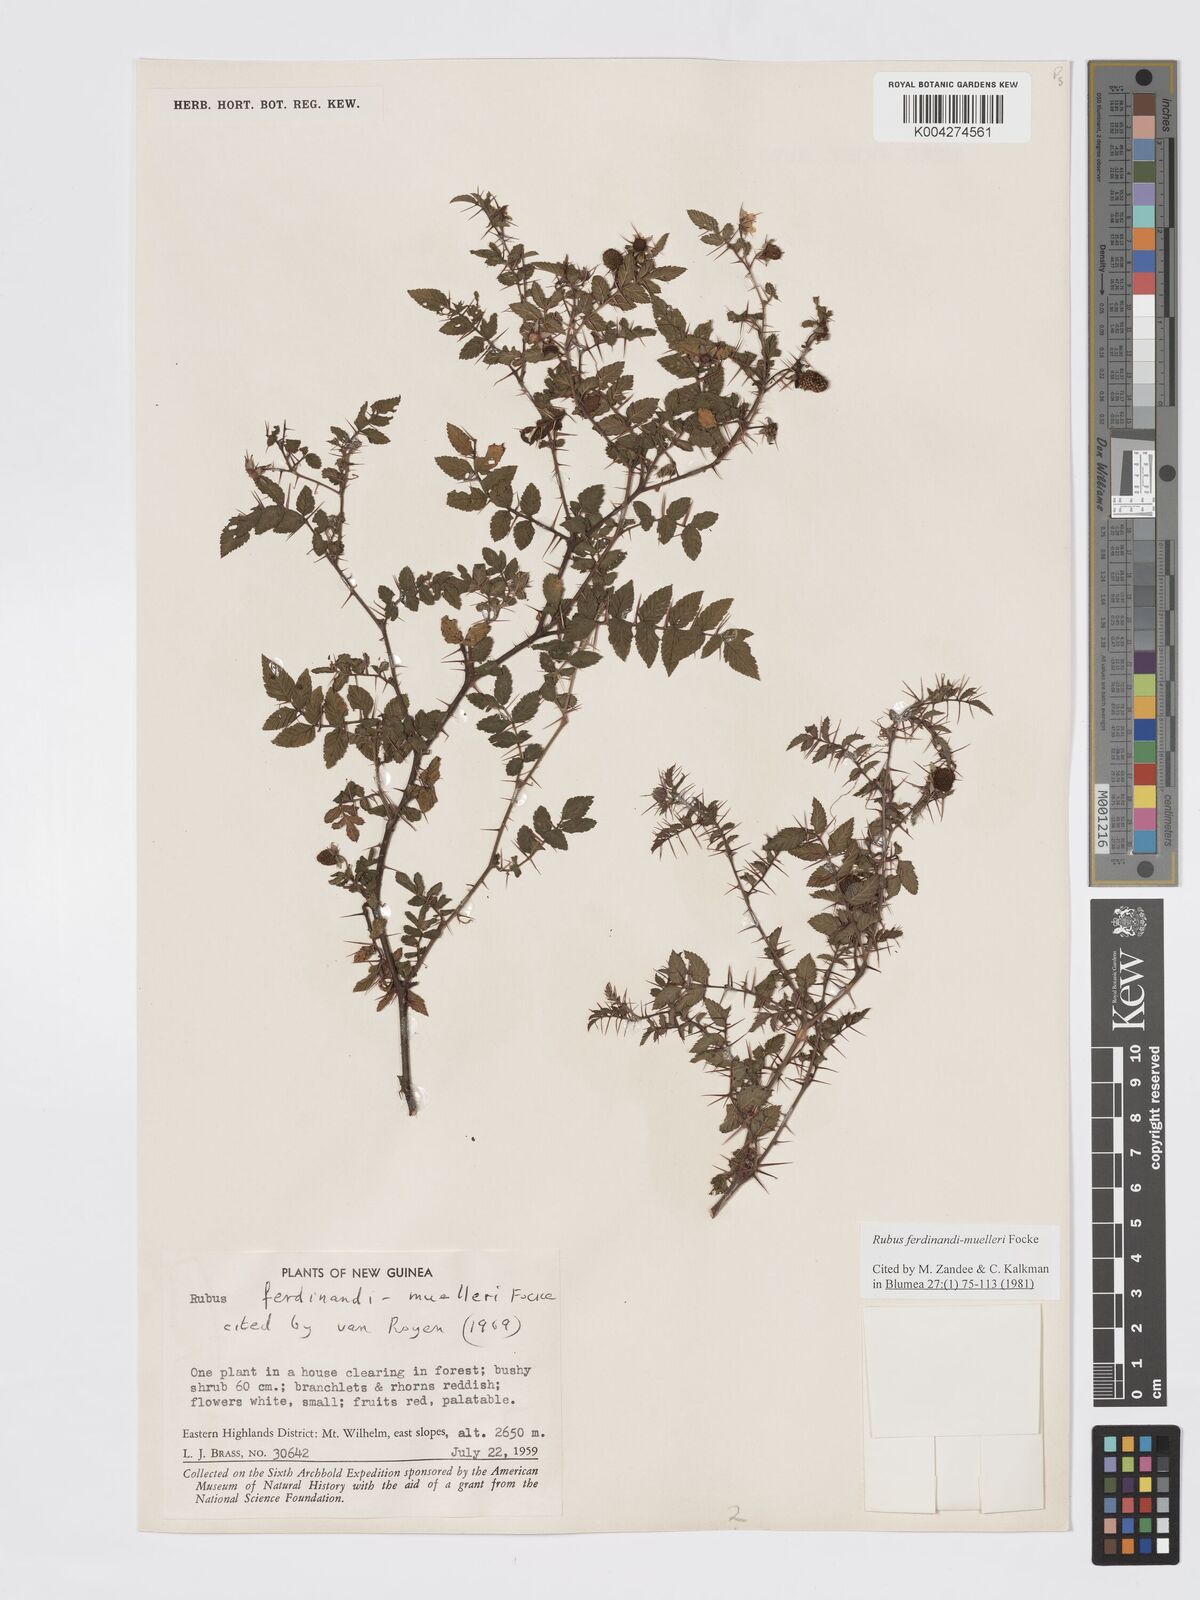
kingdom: Plantae
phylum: Tracheophyta
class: Magnoliopsida
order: Rosales
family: Rosaceae
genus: Rubus
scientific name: Rubus ferdinandimuelleri
